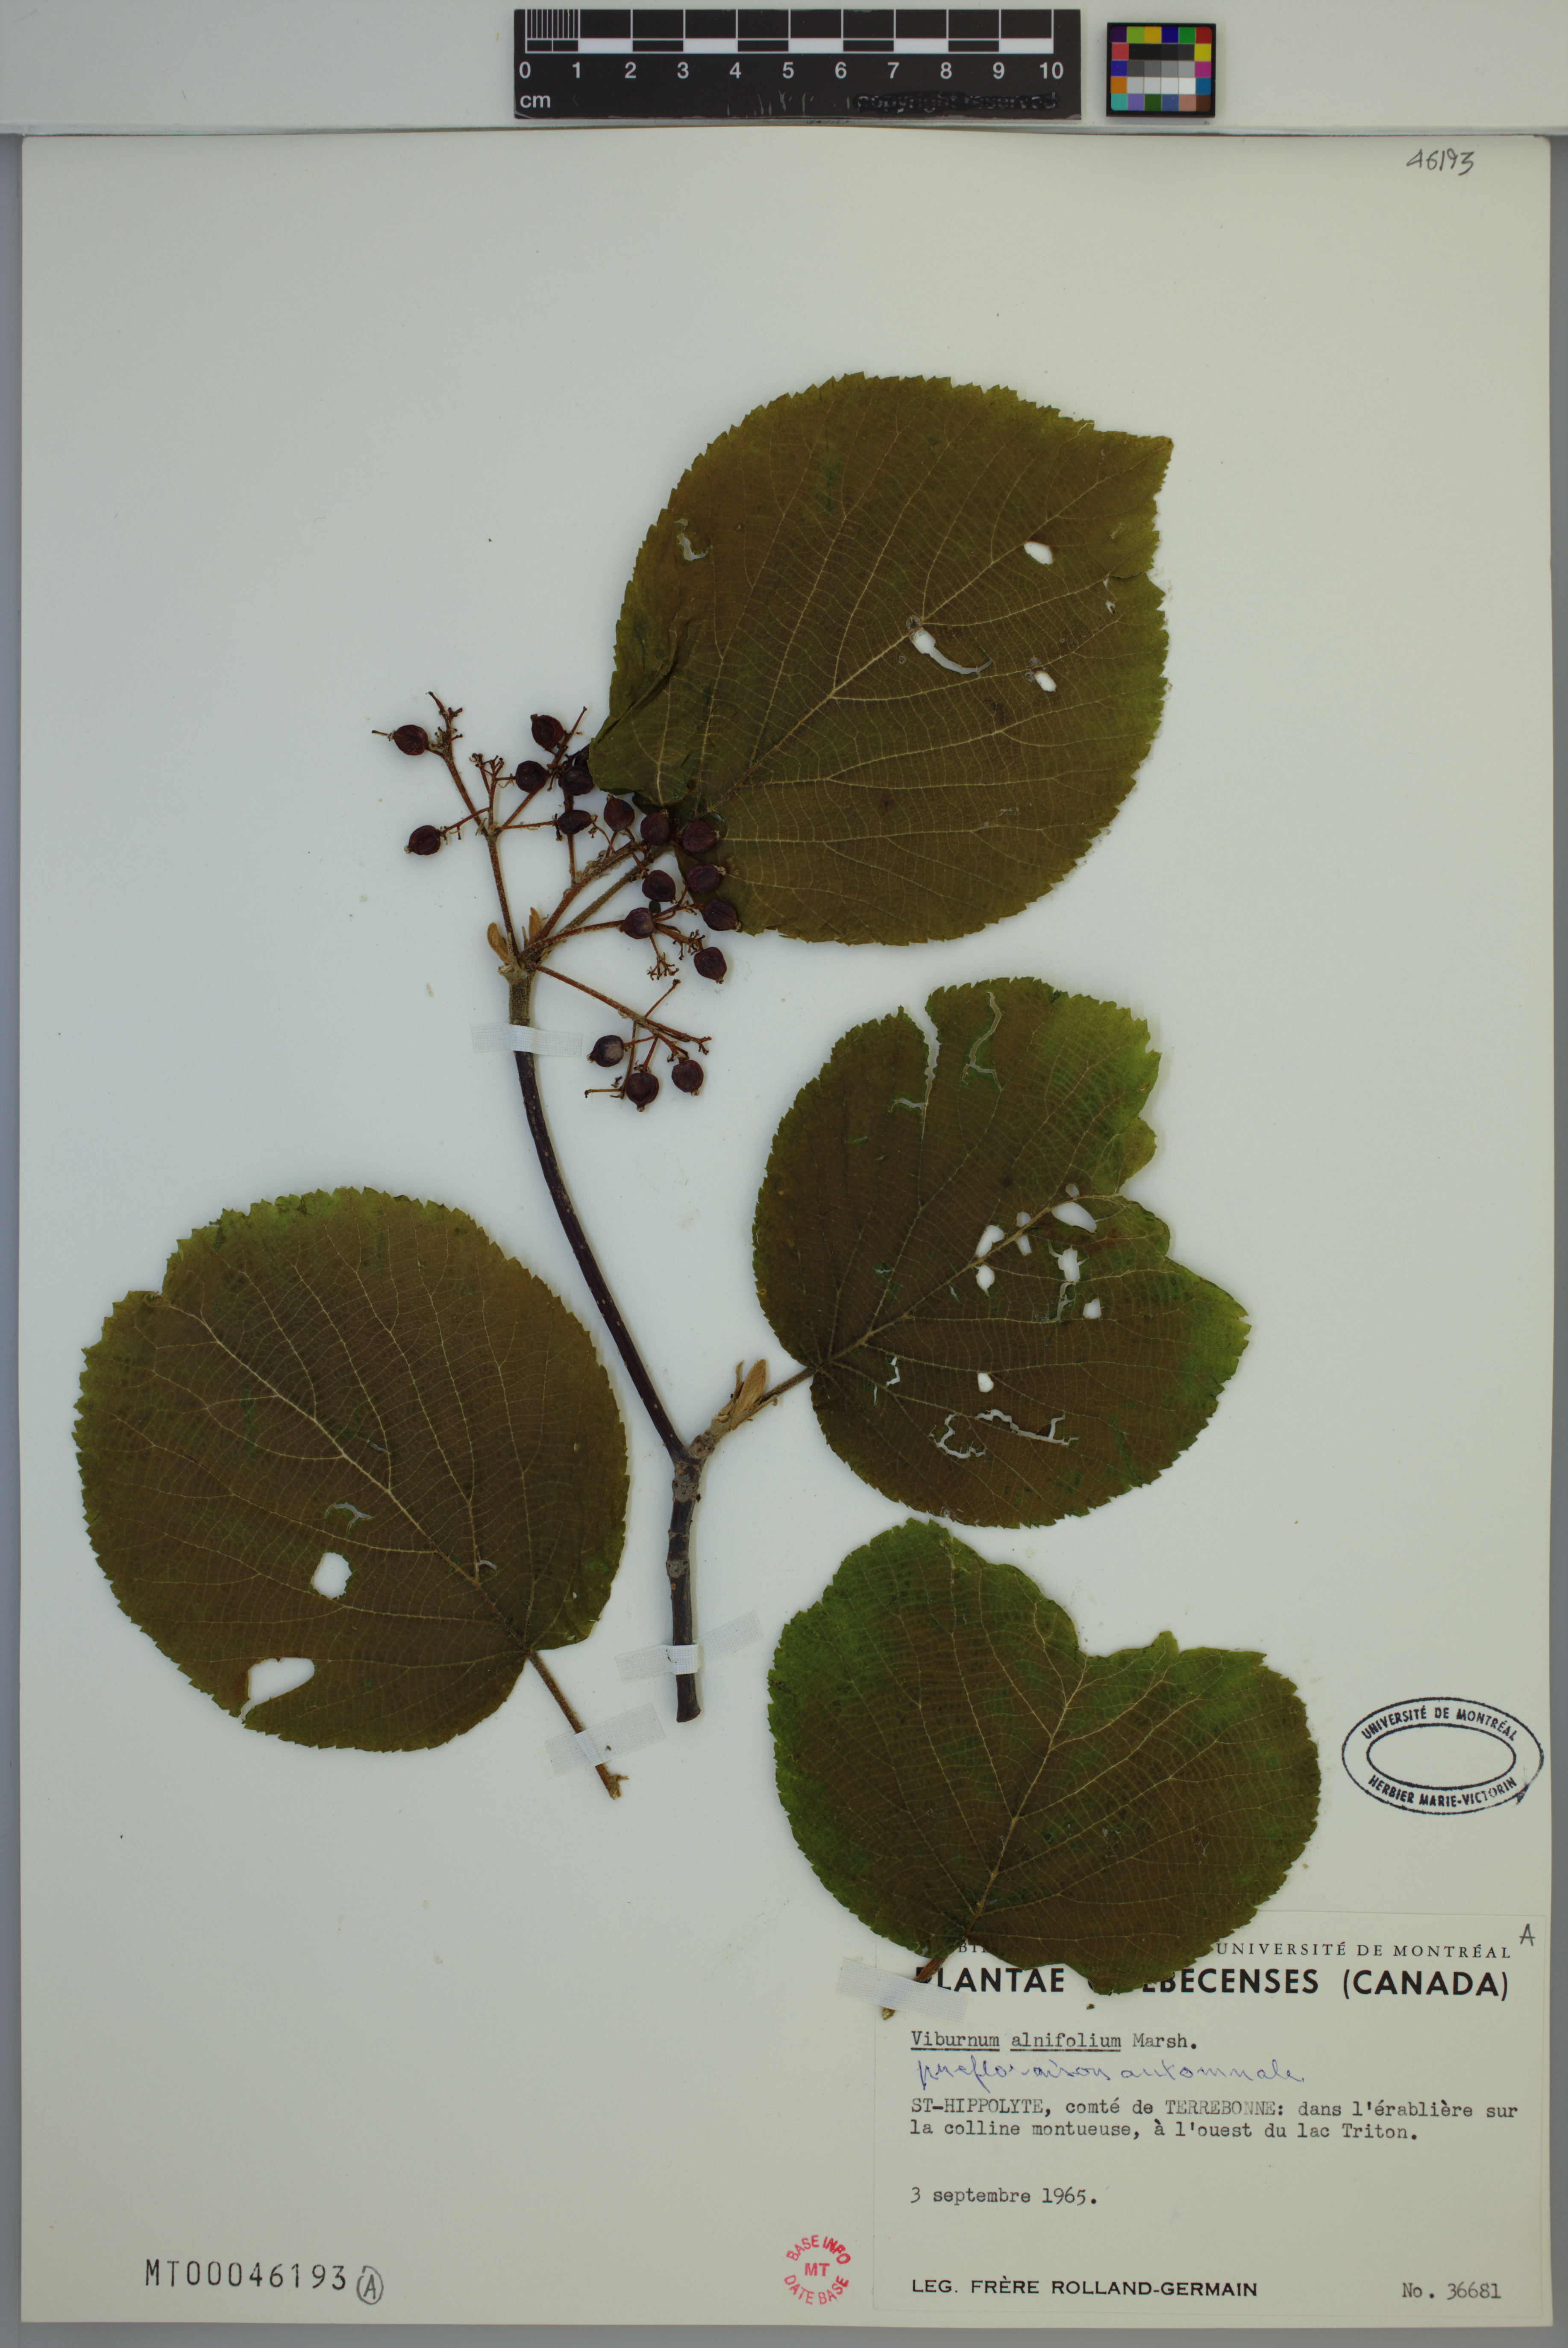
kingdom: Plantae
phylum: Tracheophyta
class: Magnoliopsida
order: Dipsacales
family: Viburnaceae
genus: Viburnum
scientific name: Viburnum lantanoides
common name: Hobblebush
